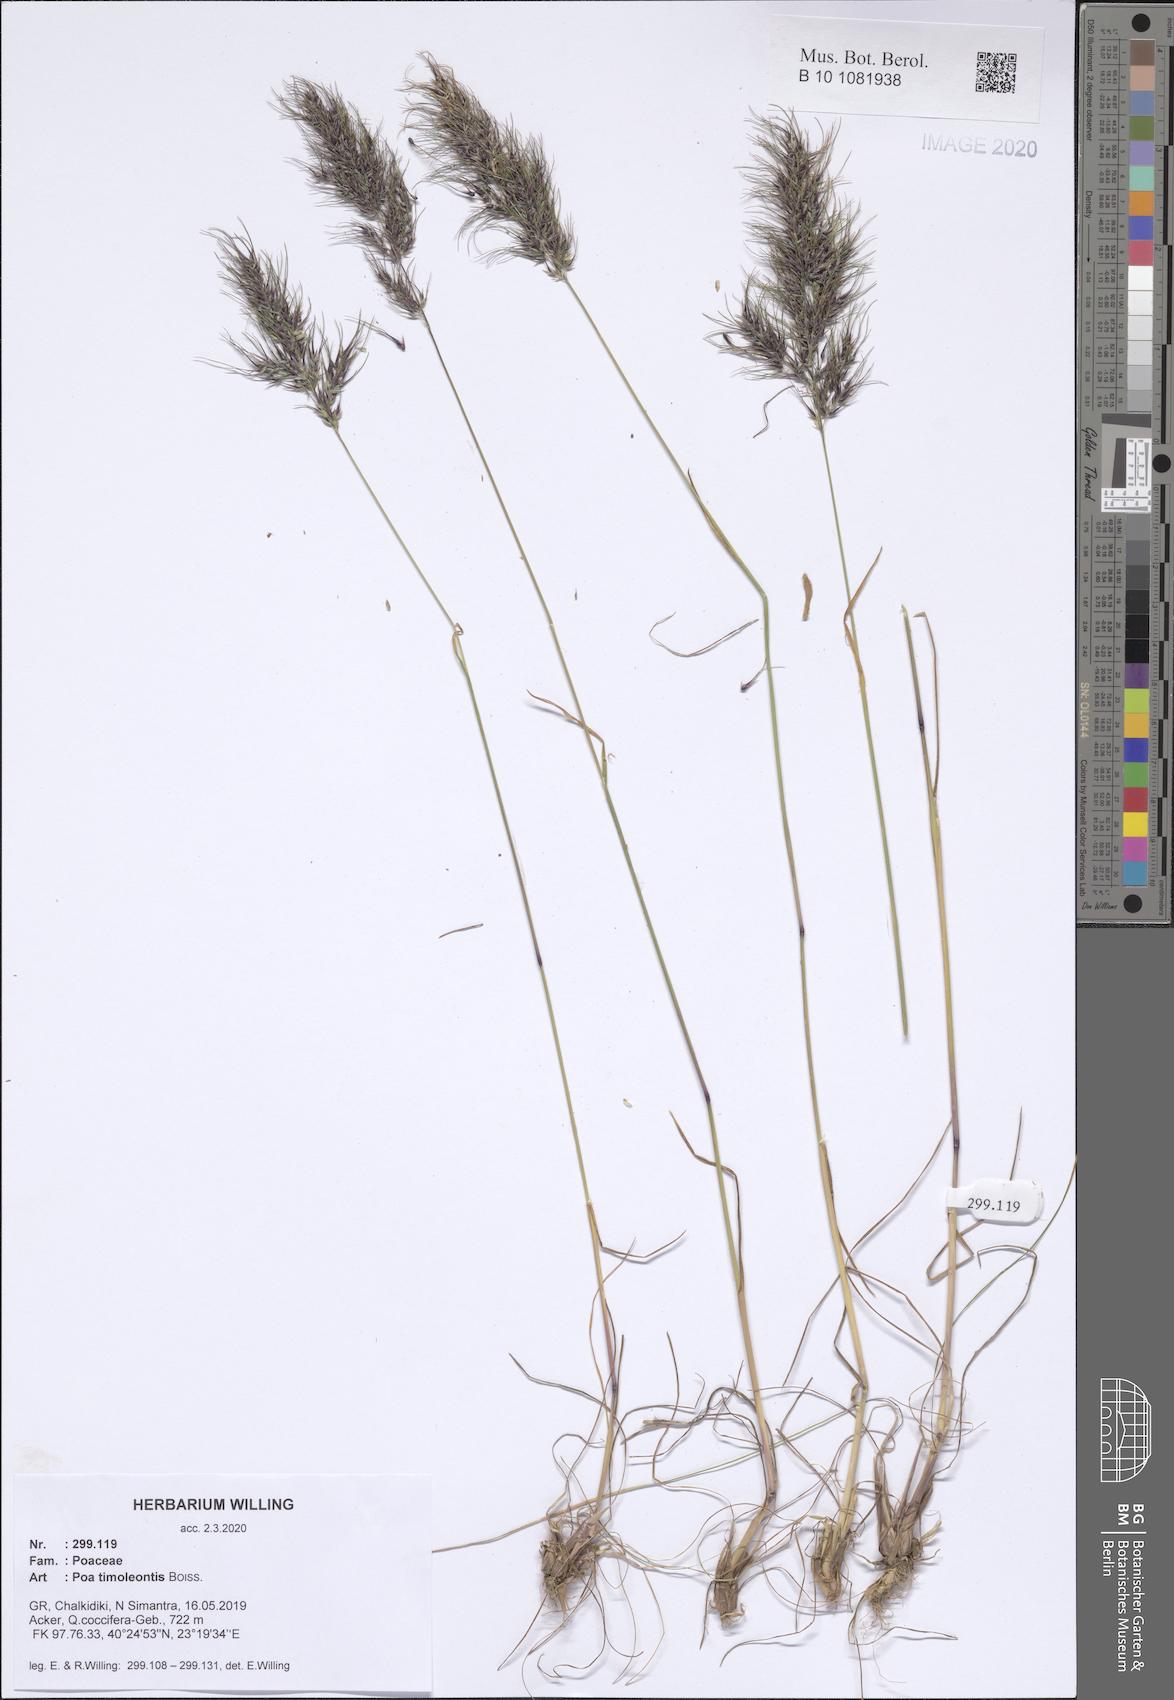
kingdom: Plantae
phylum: Tracheophyta
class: Liliopsida
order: Poales
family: Poaceae
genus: Poa
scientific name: Poa timoleontis
